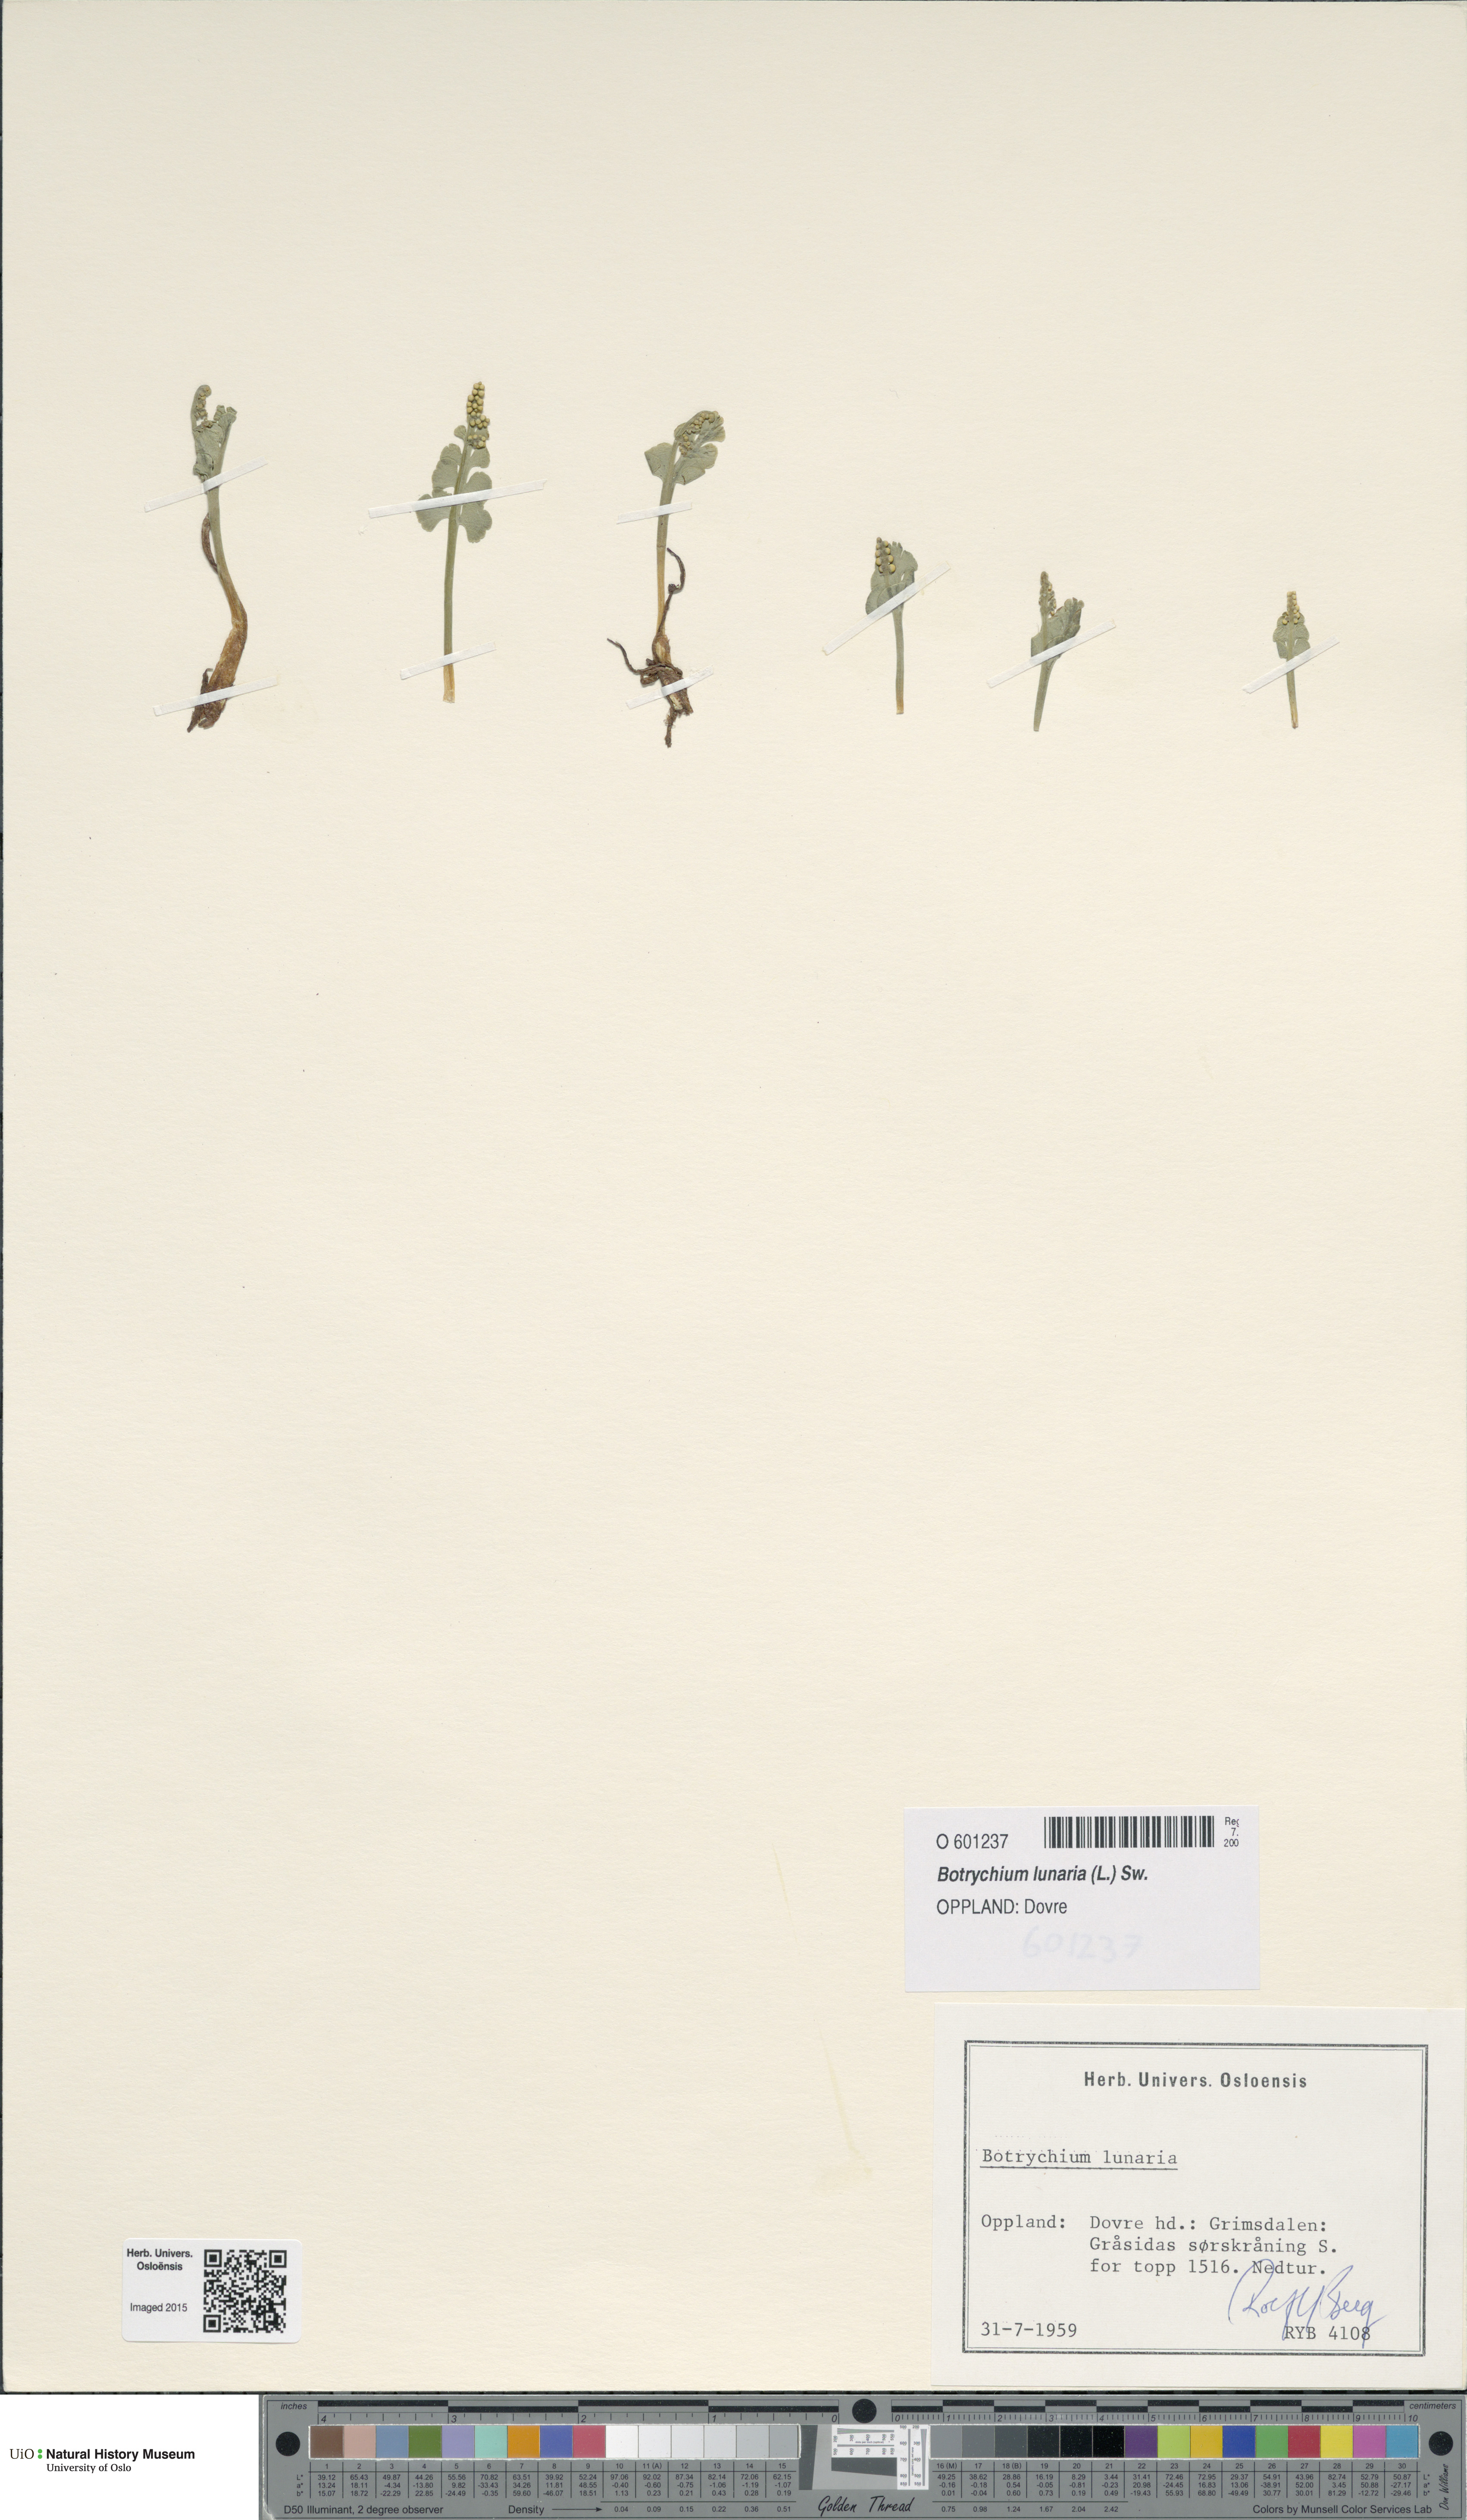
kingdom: Plantae
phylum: Tracheophyta
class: Polypodiopsida
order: Ophioglossales
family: Ophioglossaceae
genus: Botrychium
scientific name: Botrychium lunaria
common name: Moonwort
